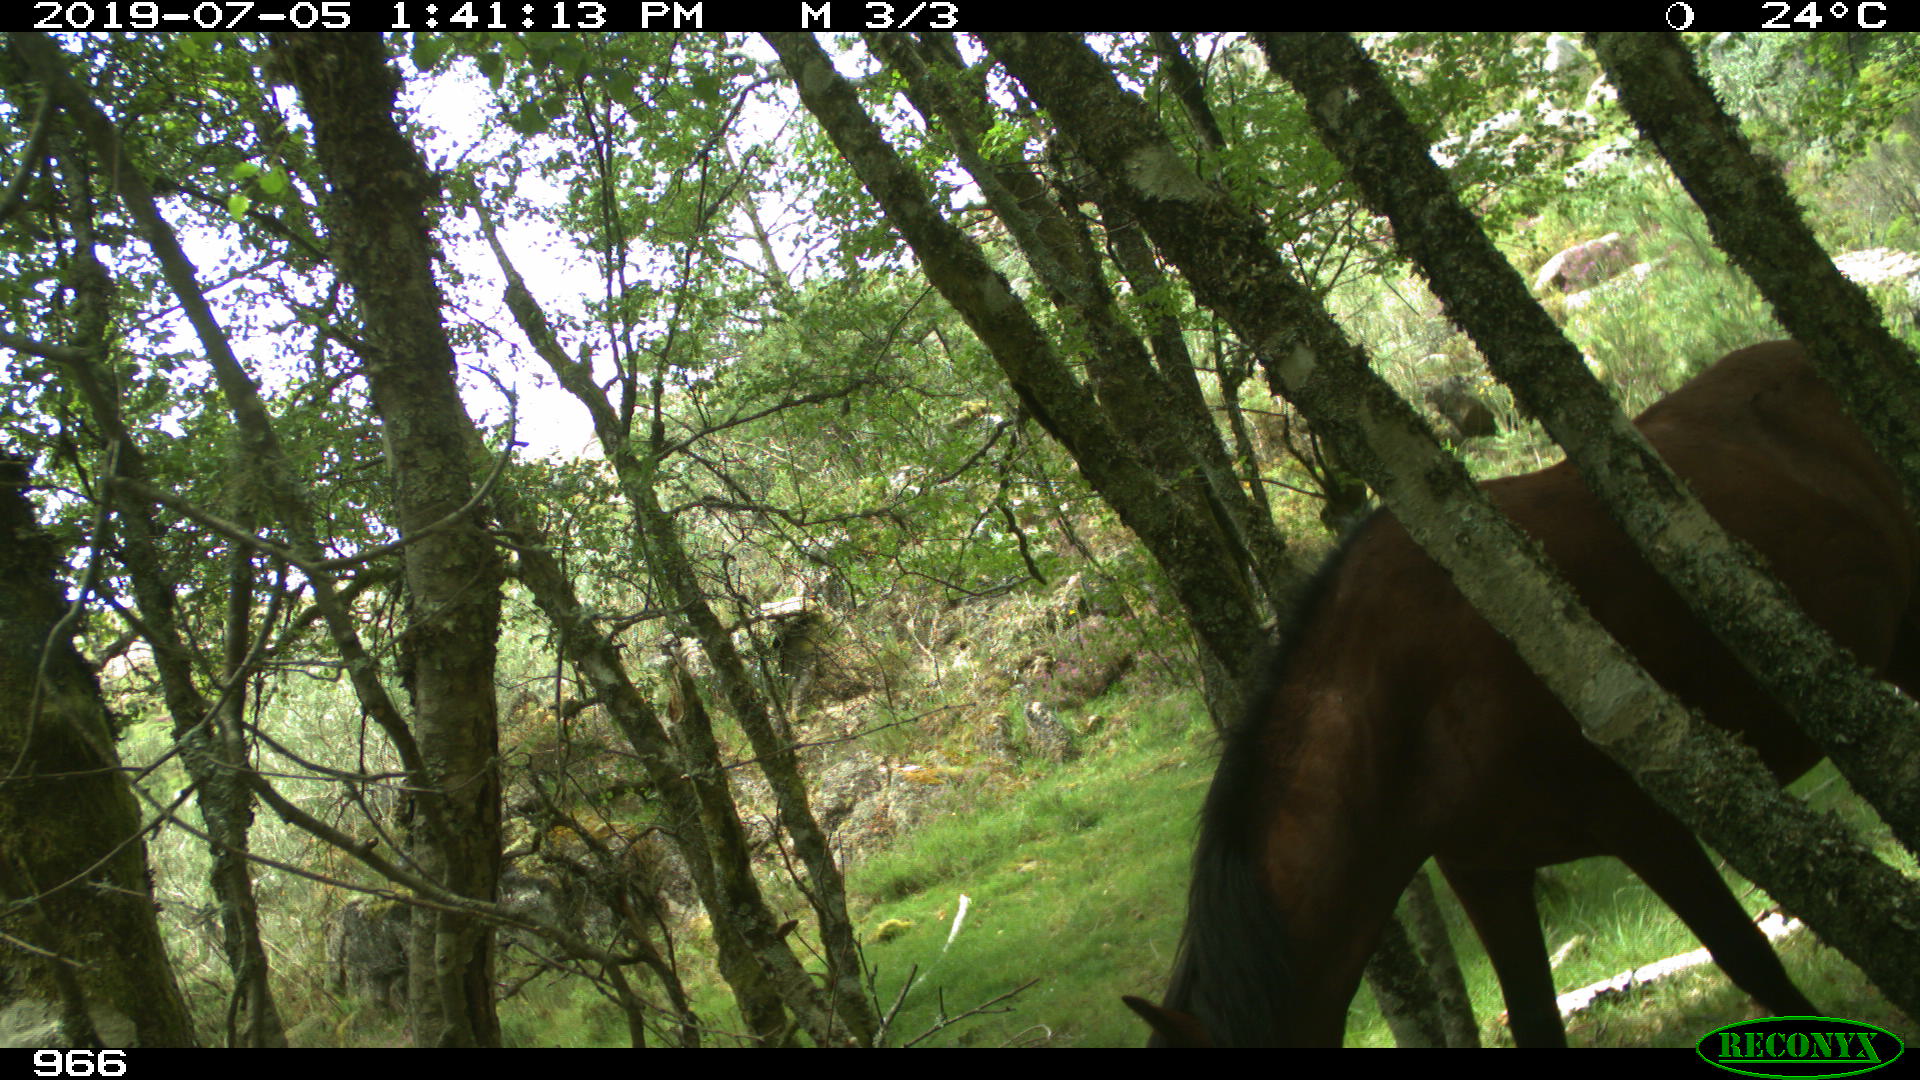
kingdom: Animalia
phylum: Chordata
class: Mammalia
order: Perissodactyla
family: Equidae
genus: Equus
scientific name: Equus caballus
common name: Horse
